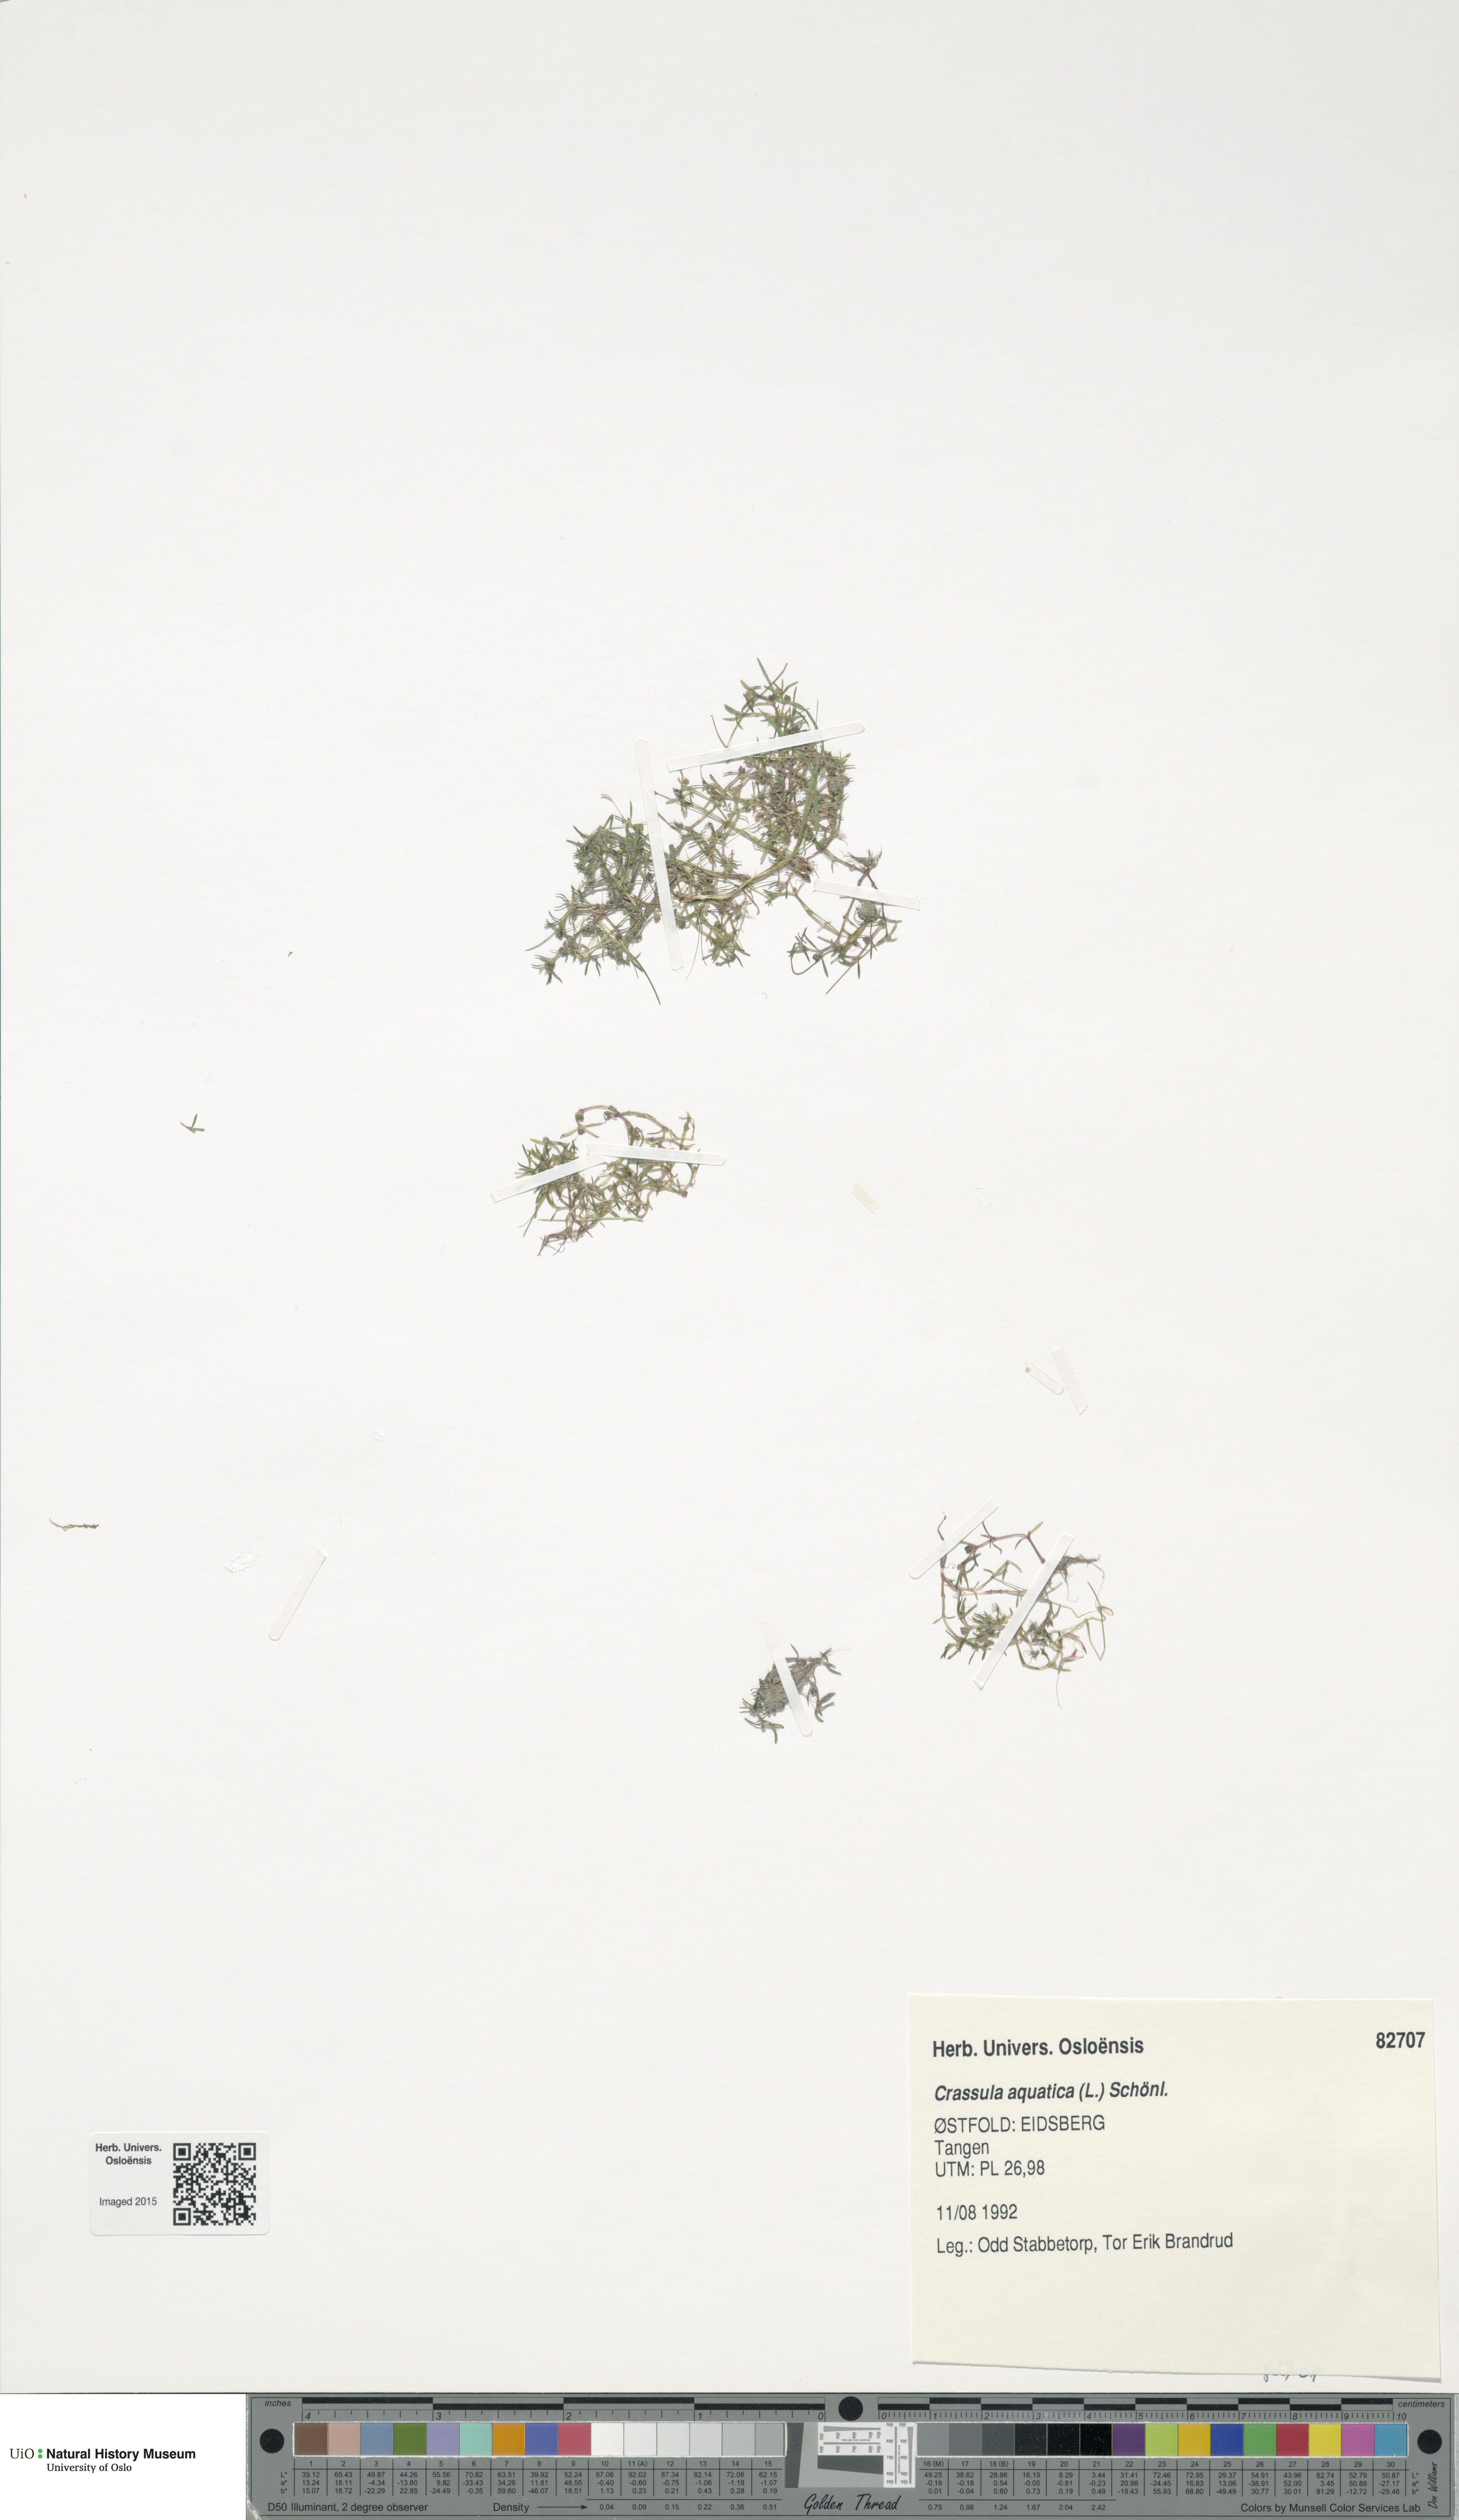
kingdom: Plantae
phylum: Tracheophyta
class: Magnoliopsida
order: Saxifragales
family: Crassulaceae
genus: Crassula
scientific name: Crassula aquatica
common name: Pigmyweed
